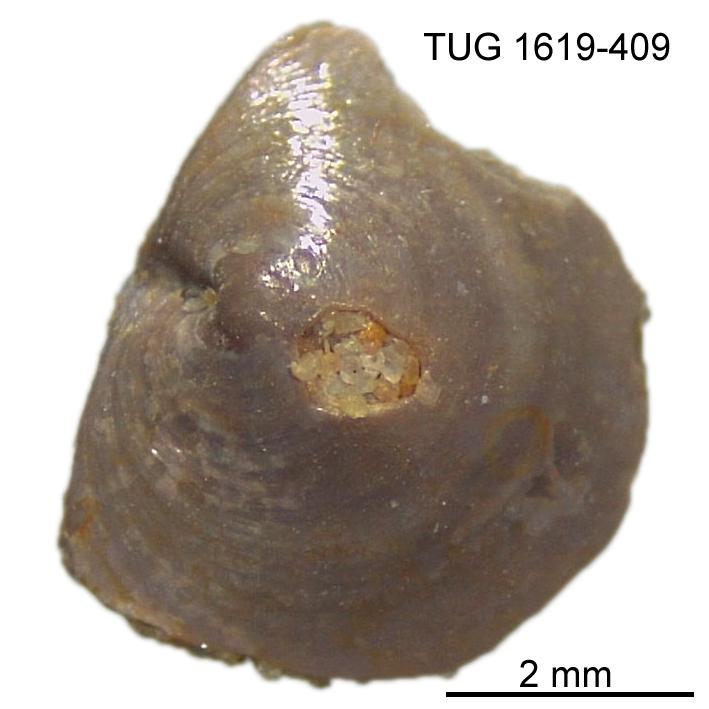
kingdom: Animalia
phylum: Porifera
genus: Ungula
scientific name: Ungula
